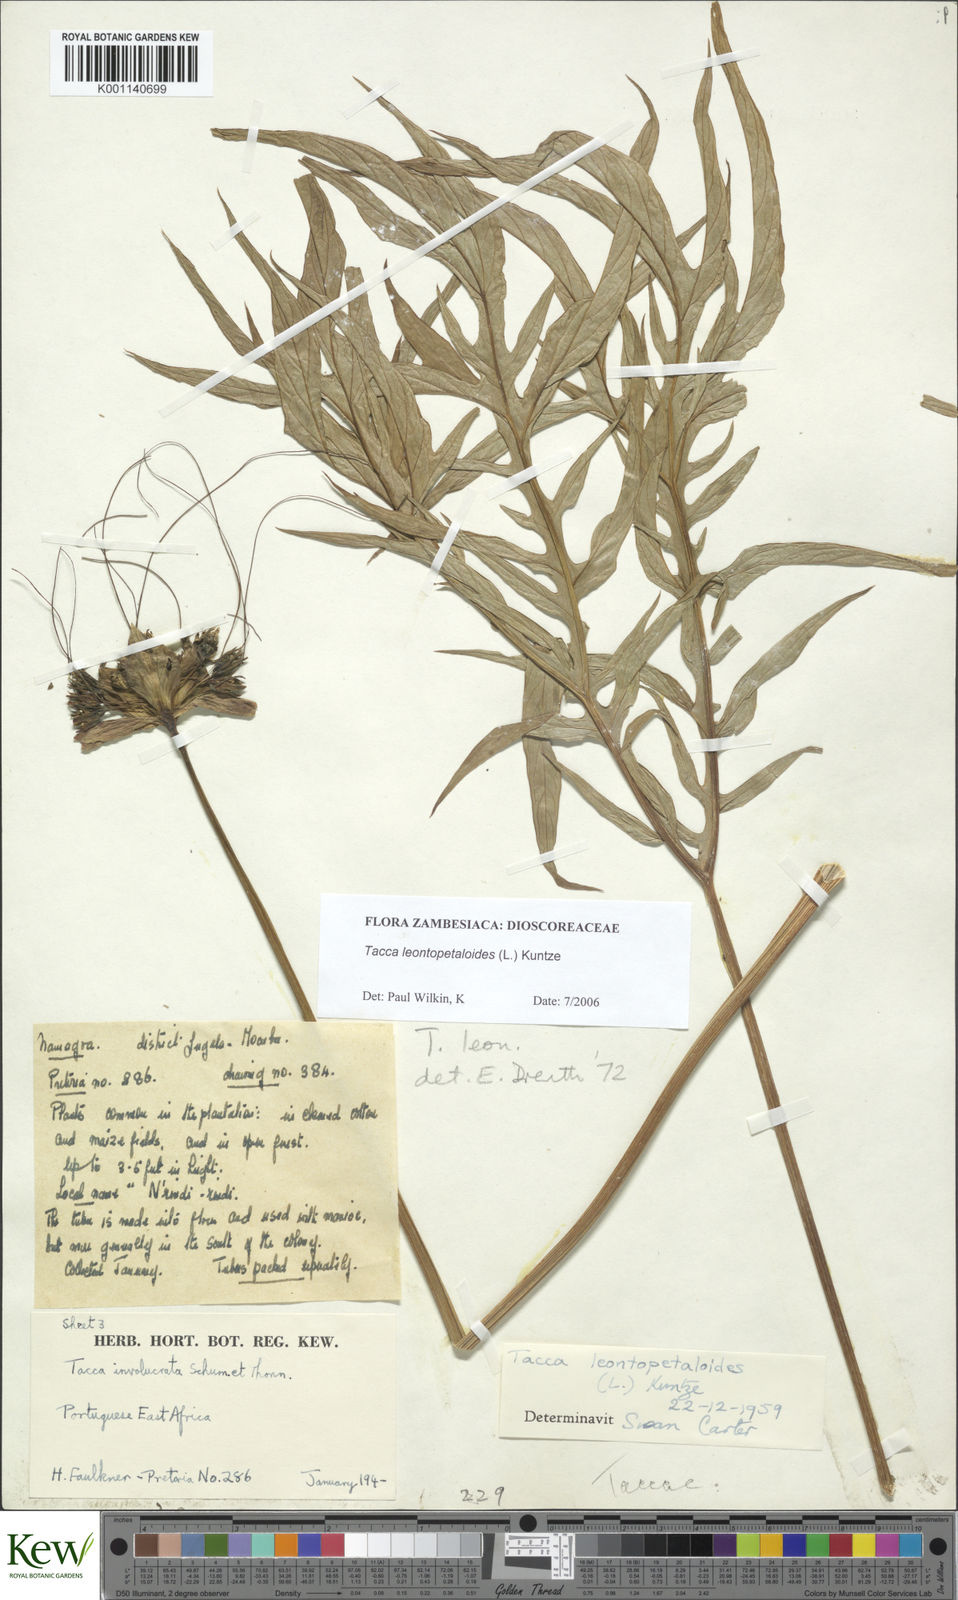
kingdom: Plantae
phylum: Tracheophyta
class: Liliopsida
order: Dioscoreales
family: Dioscoreaceae
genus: Tacca
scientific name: Tacca leontopetaloides
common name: Arrowroot
